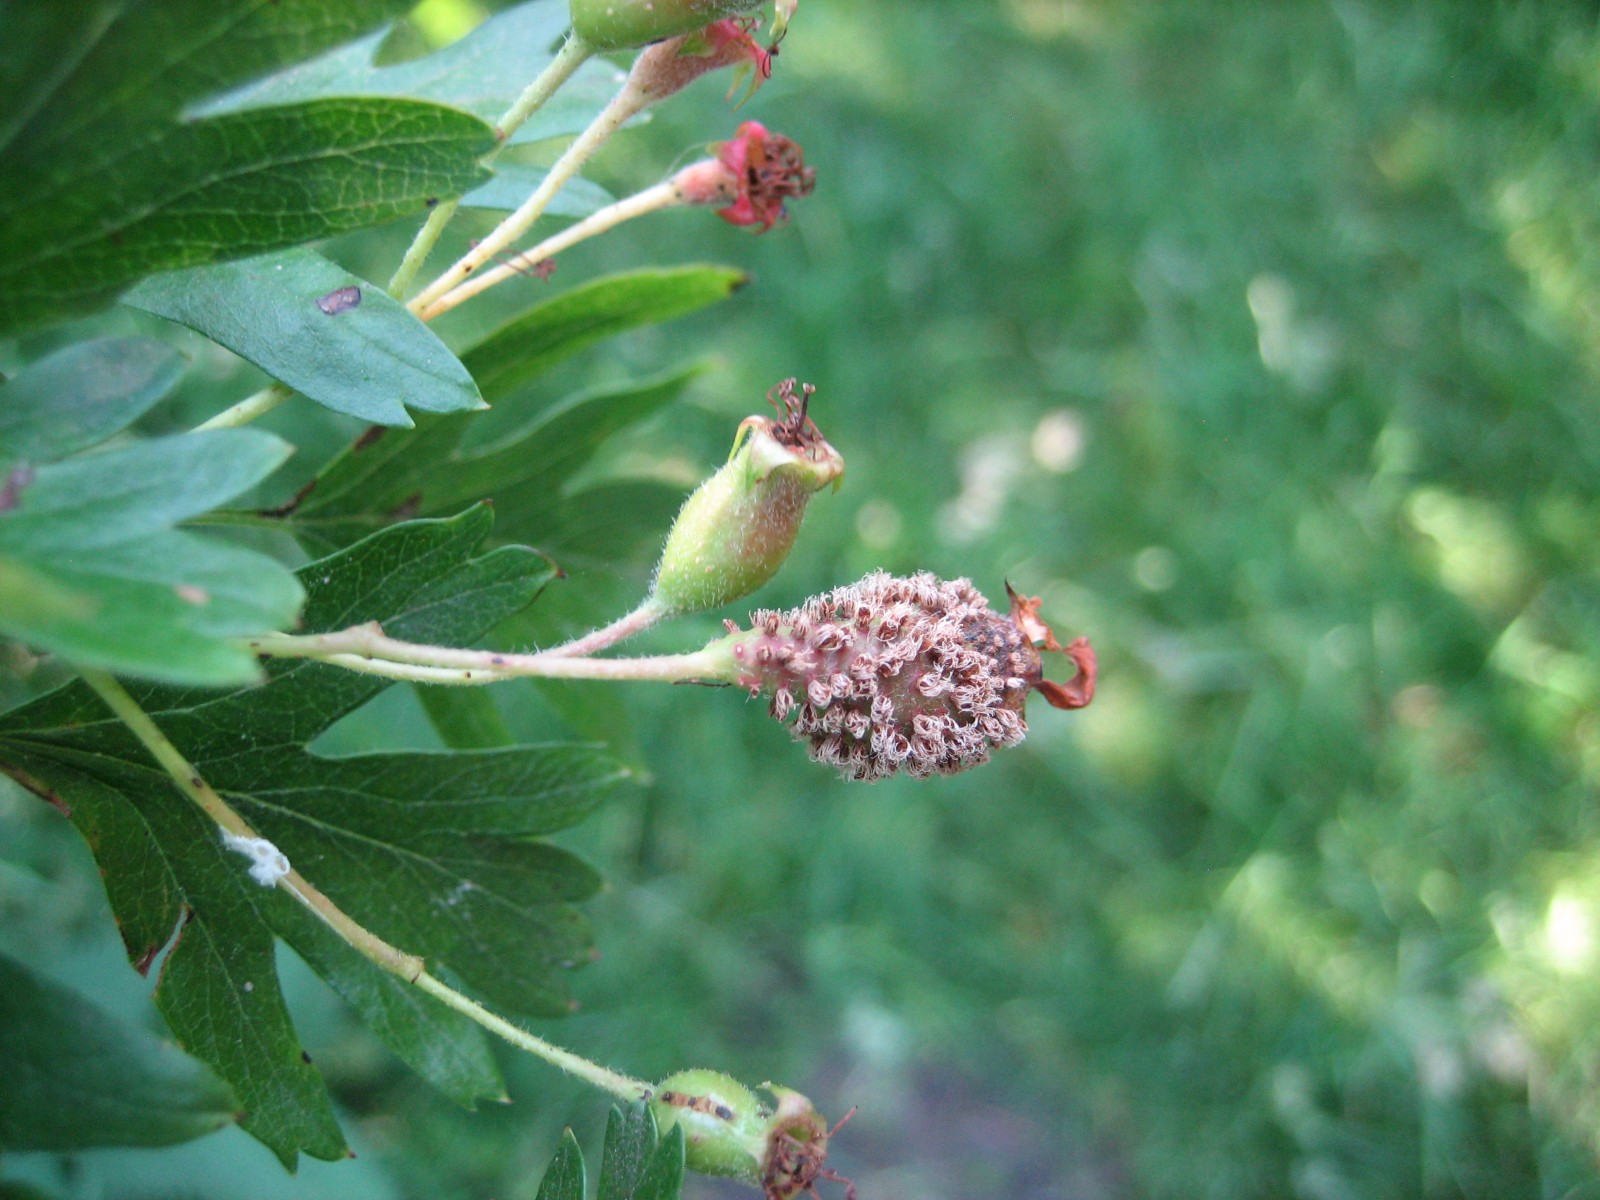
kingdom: Fungi
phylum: Basidiomycota
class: Pucciniomycetes
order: Pucciniales
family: Gymnosporangiaceae
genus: Gymnosporangium
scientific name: Gymnosporangium
